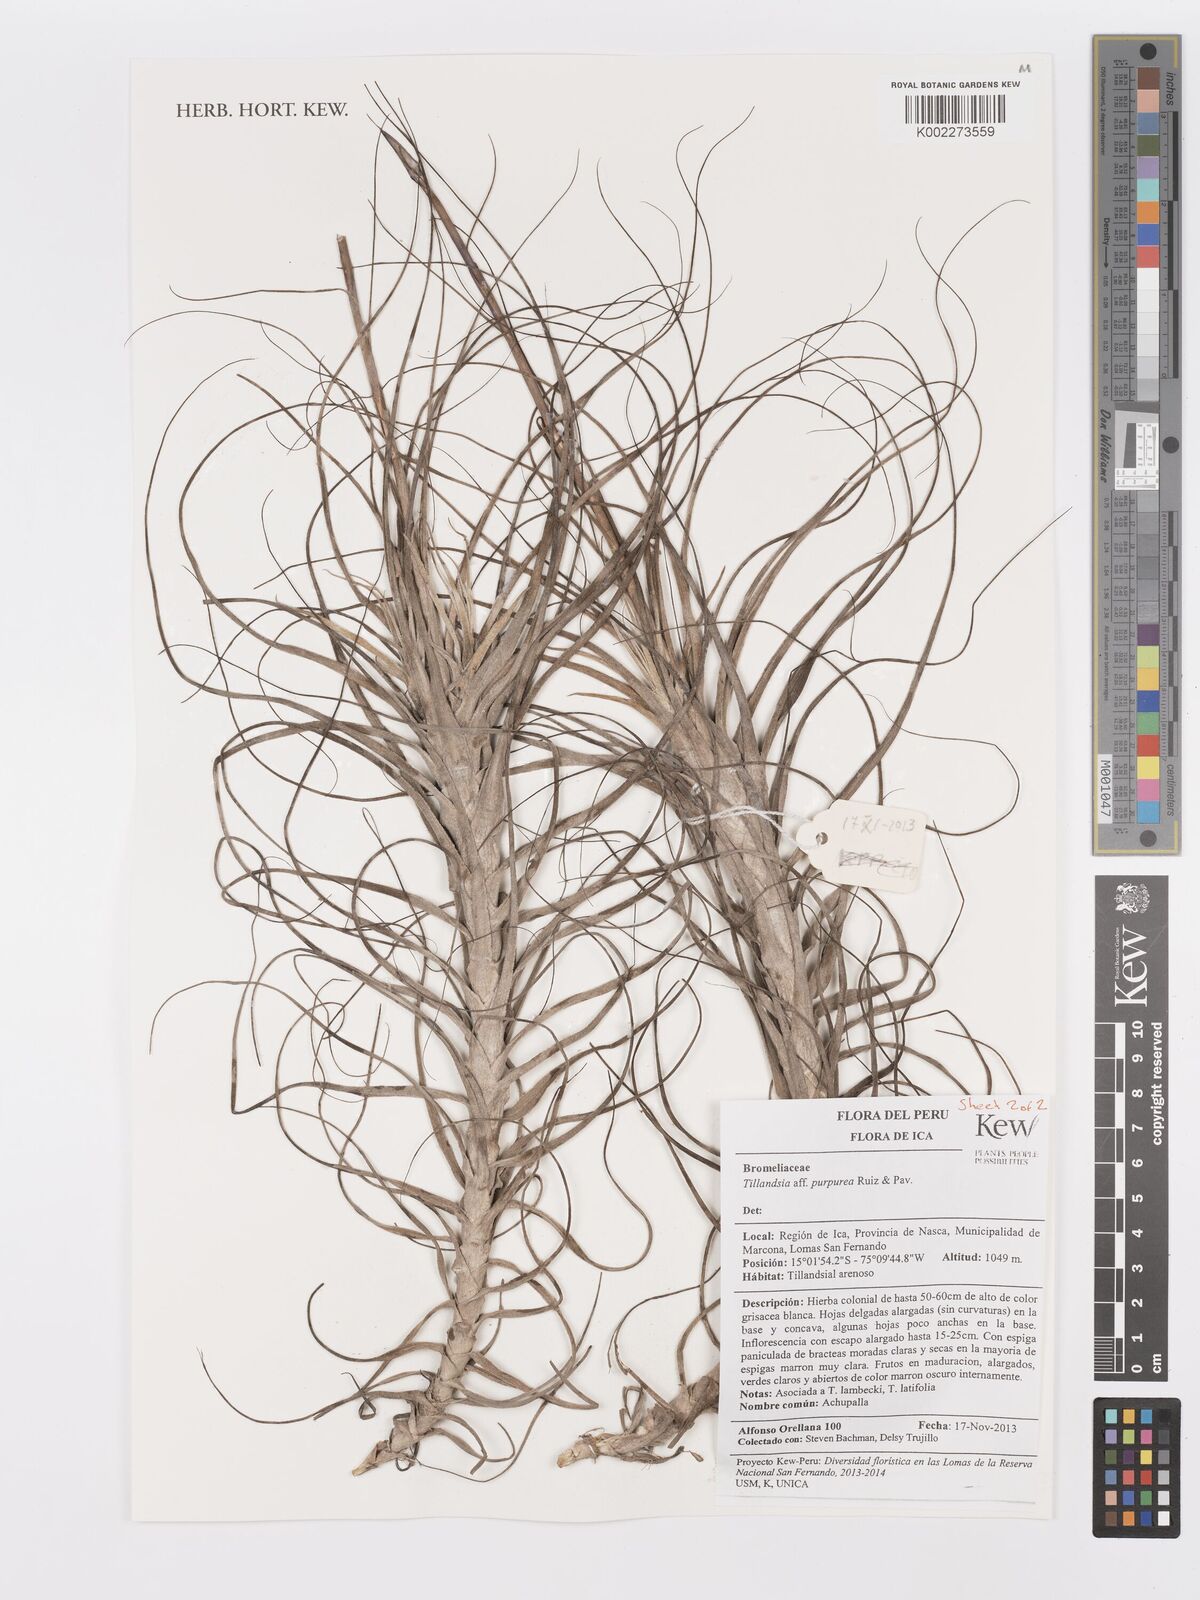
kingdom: Plantae
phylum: Tracheophyta
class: Liliopsida
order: Poales
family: Bromeliaceae
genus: Tillandsia
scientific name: Tillandsia purpurea
